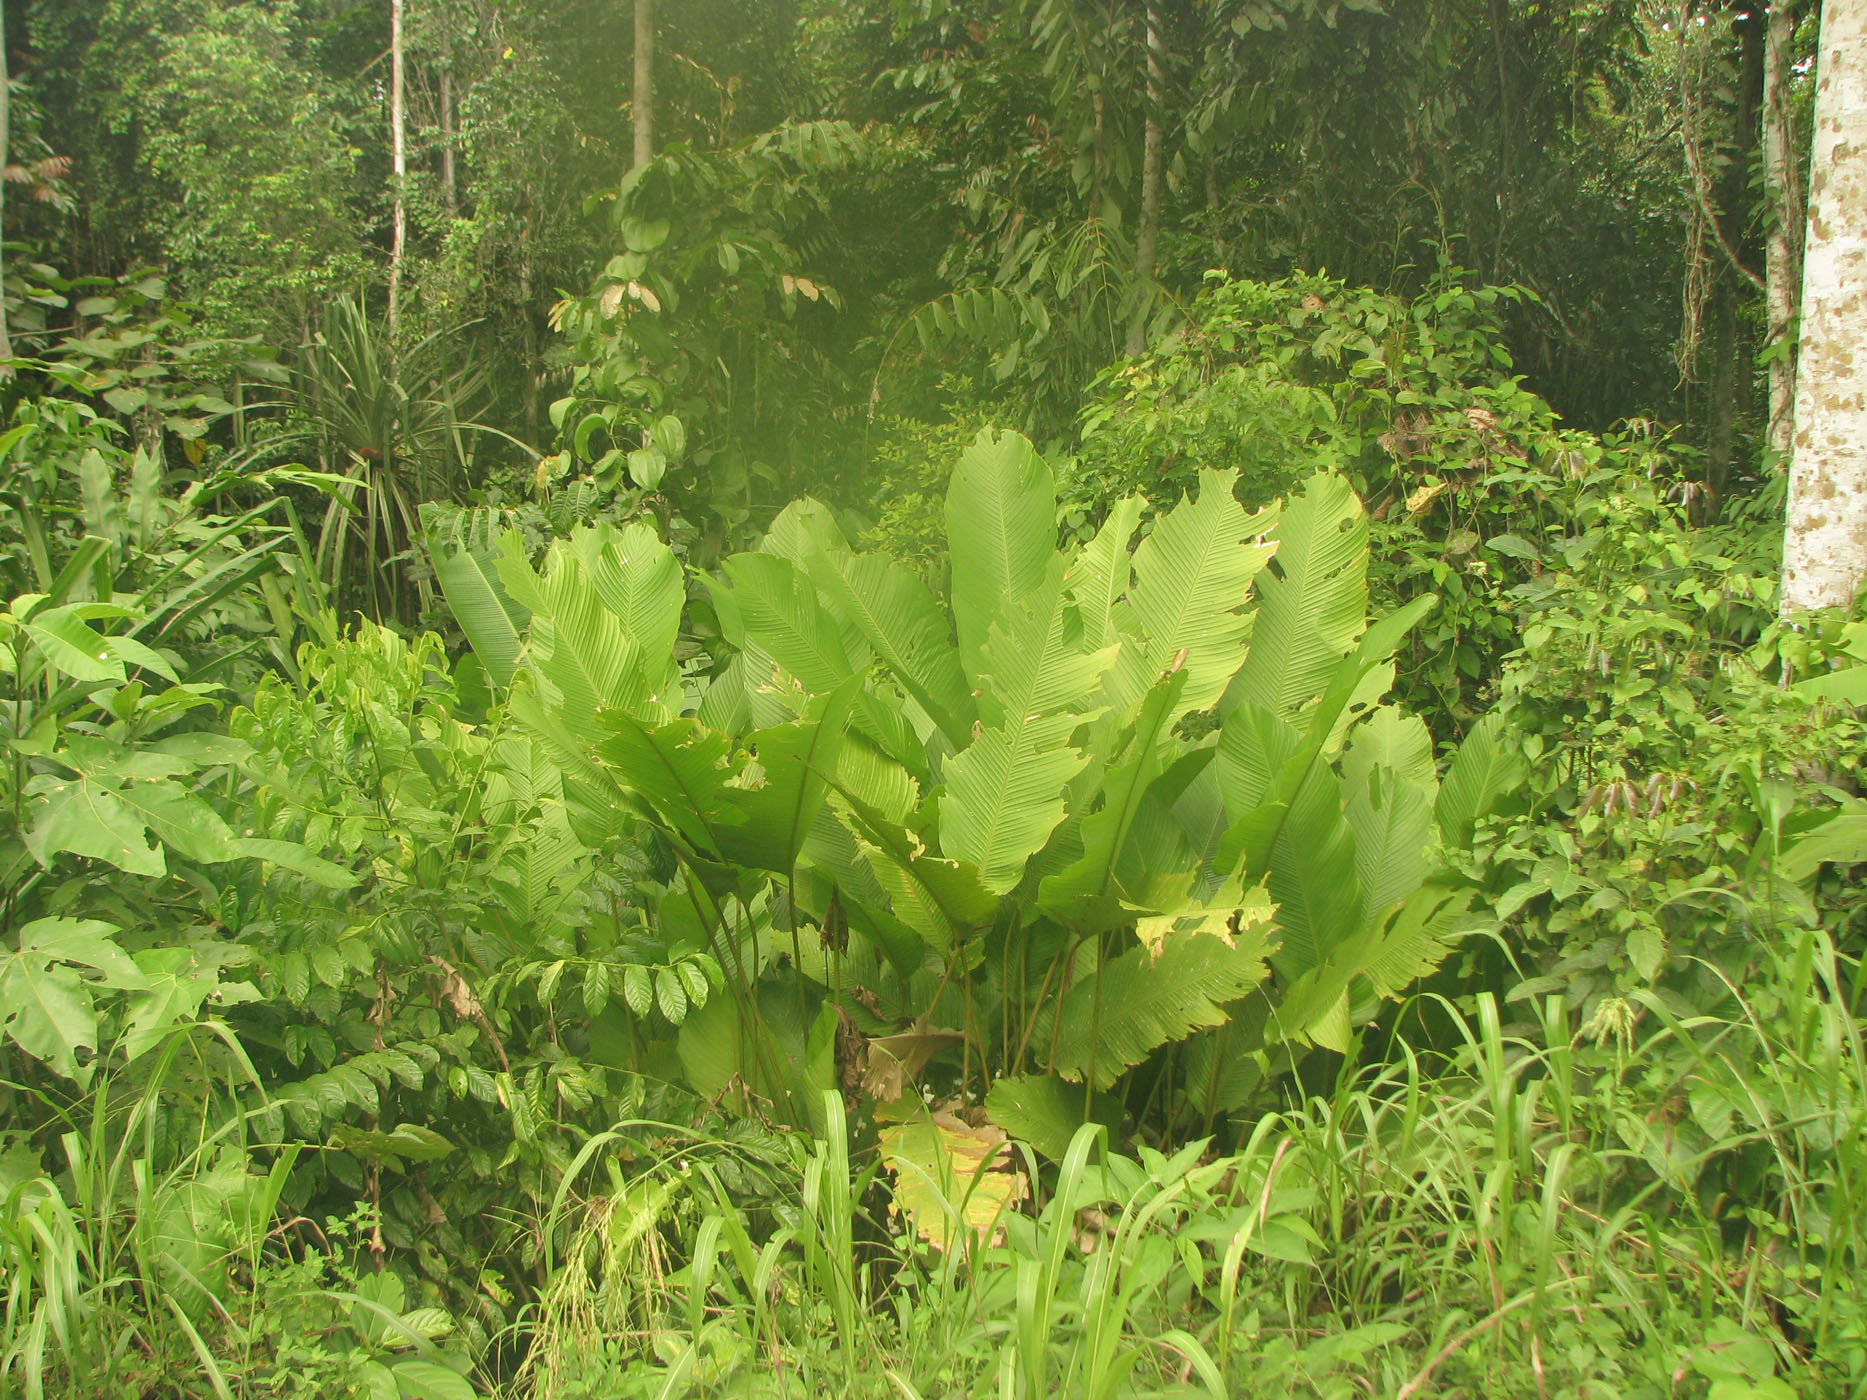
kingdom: Plantae
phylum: Tracheophyta
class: Liliopsida
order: Zingiberales
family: Marantaceae
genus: Phrynium
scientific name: Phrynium giganteum
